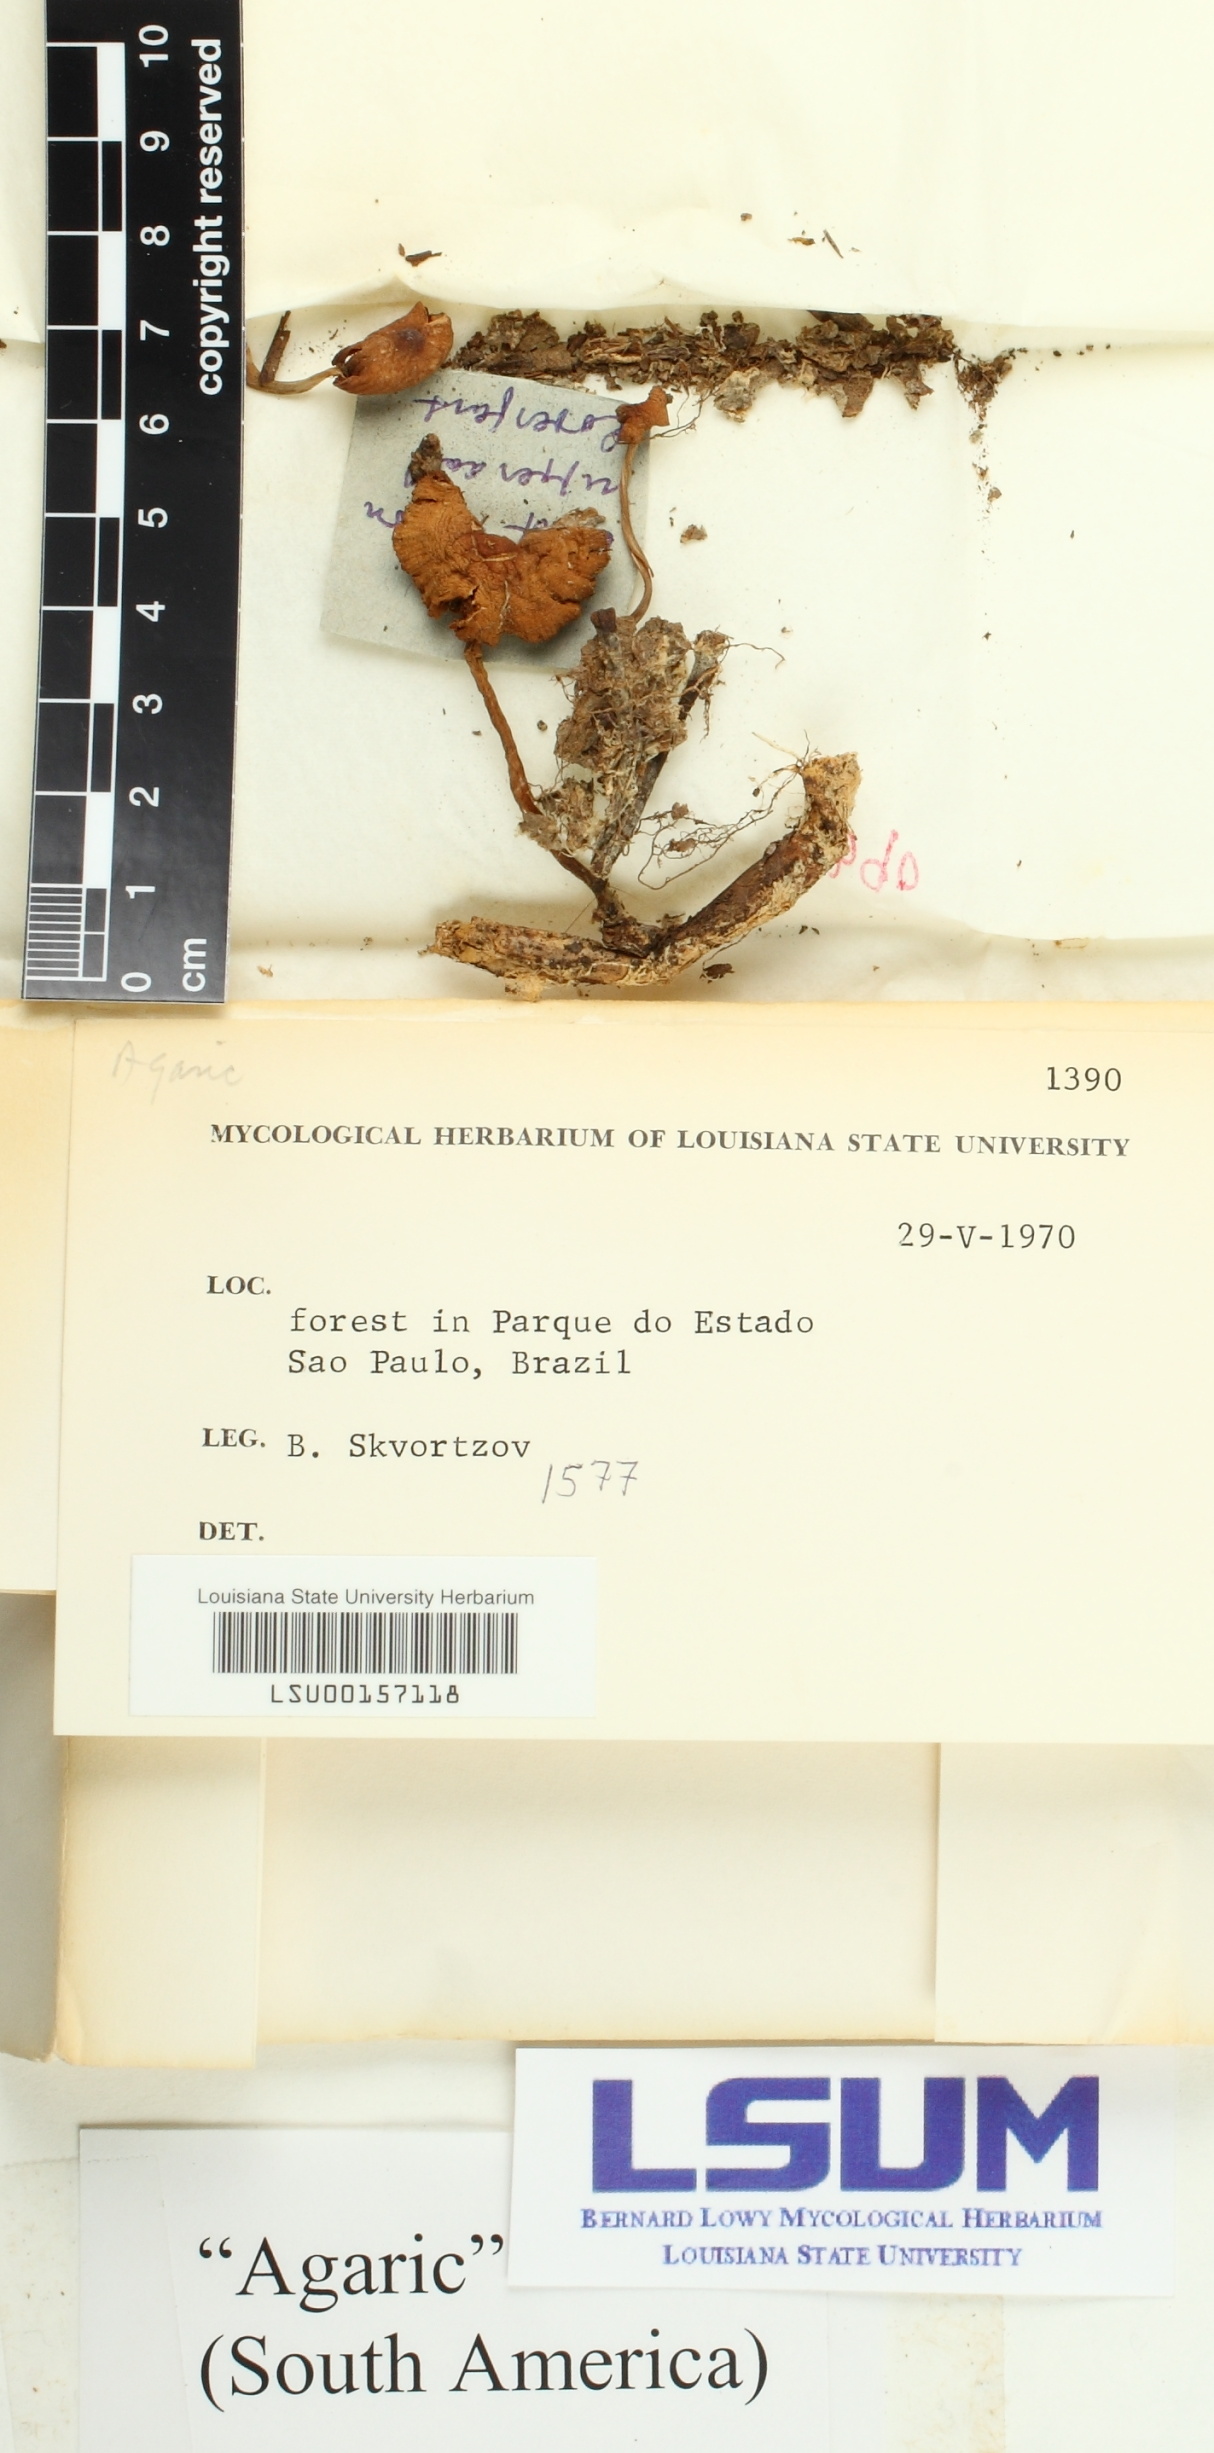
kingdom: Fungi
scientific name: Fungi
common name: Fungi
